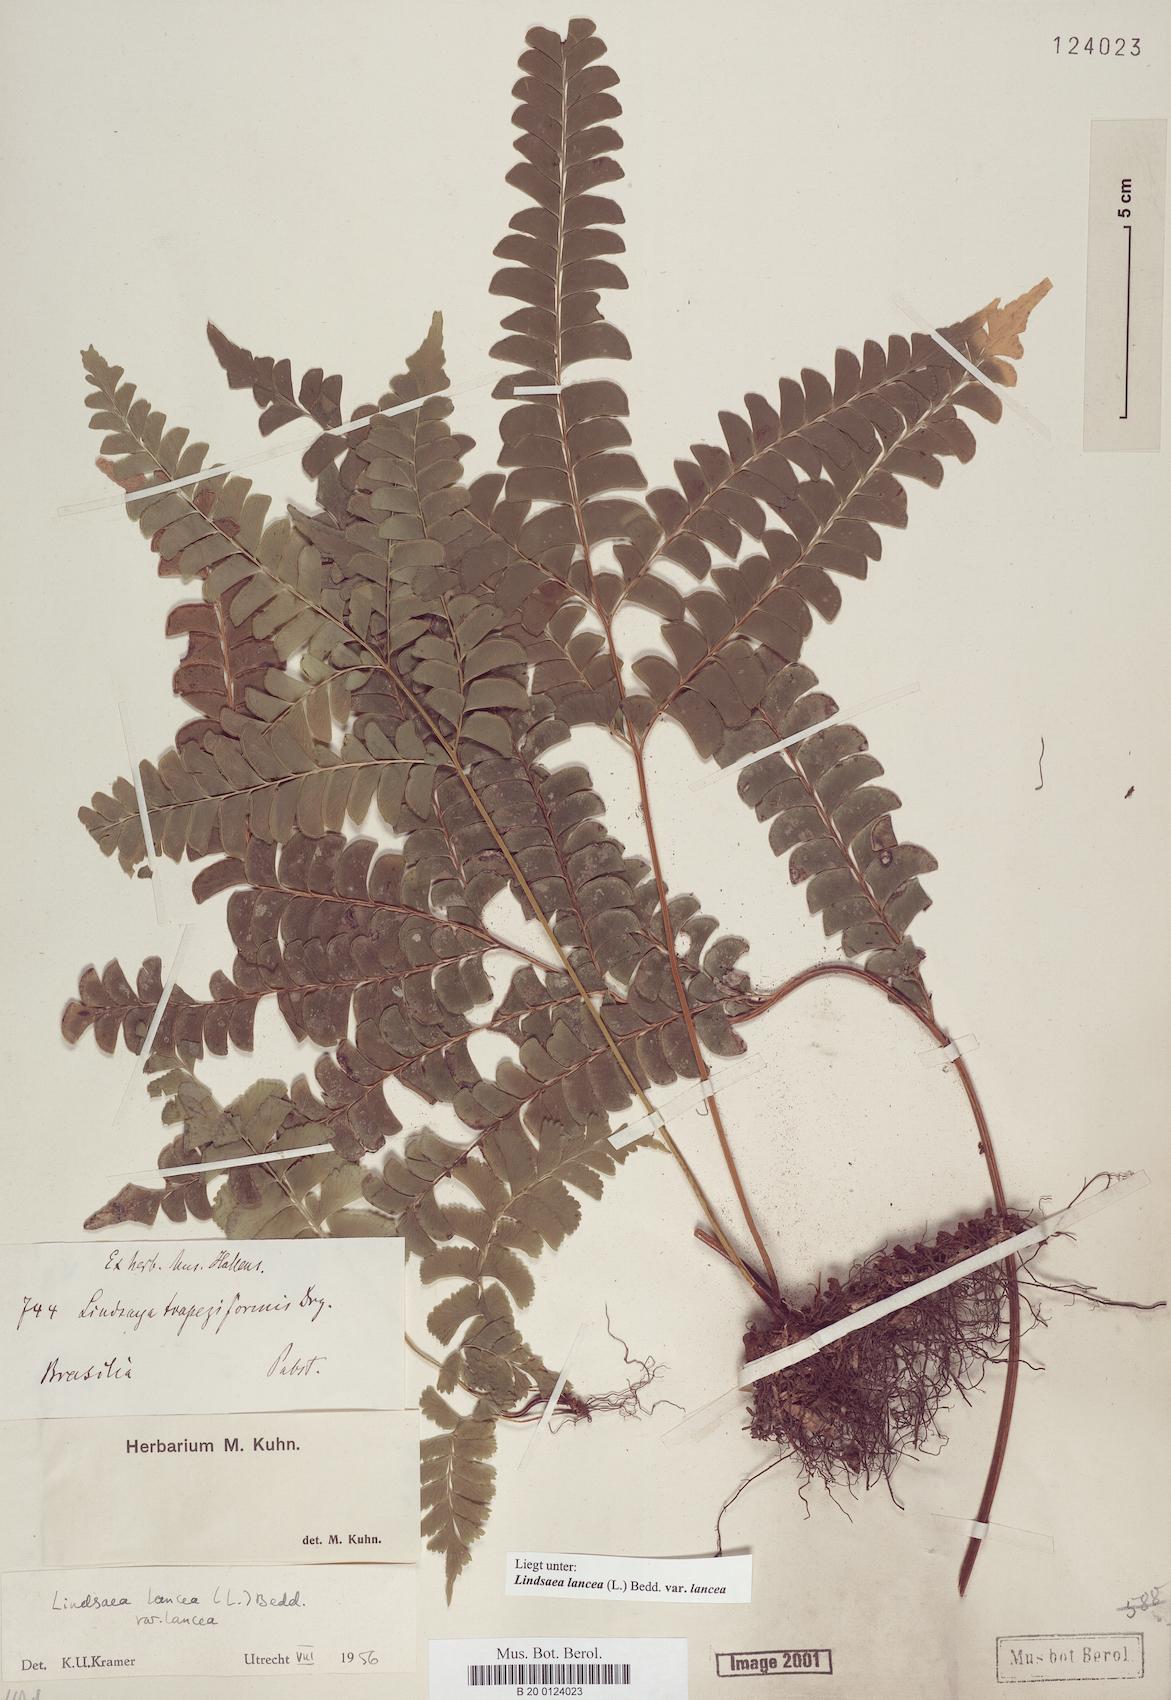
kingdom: Plantae
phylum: Tracheophyta
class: Polypodiopsida
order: Polypodiales
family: Lindsaeaceae
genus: Lindsaea
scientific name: Lindsaea lancea
